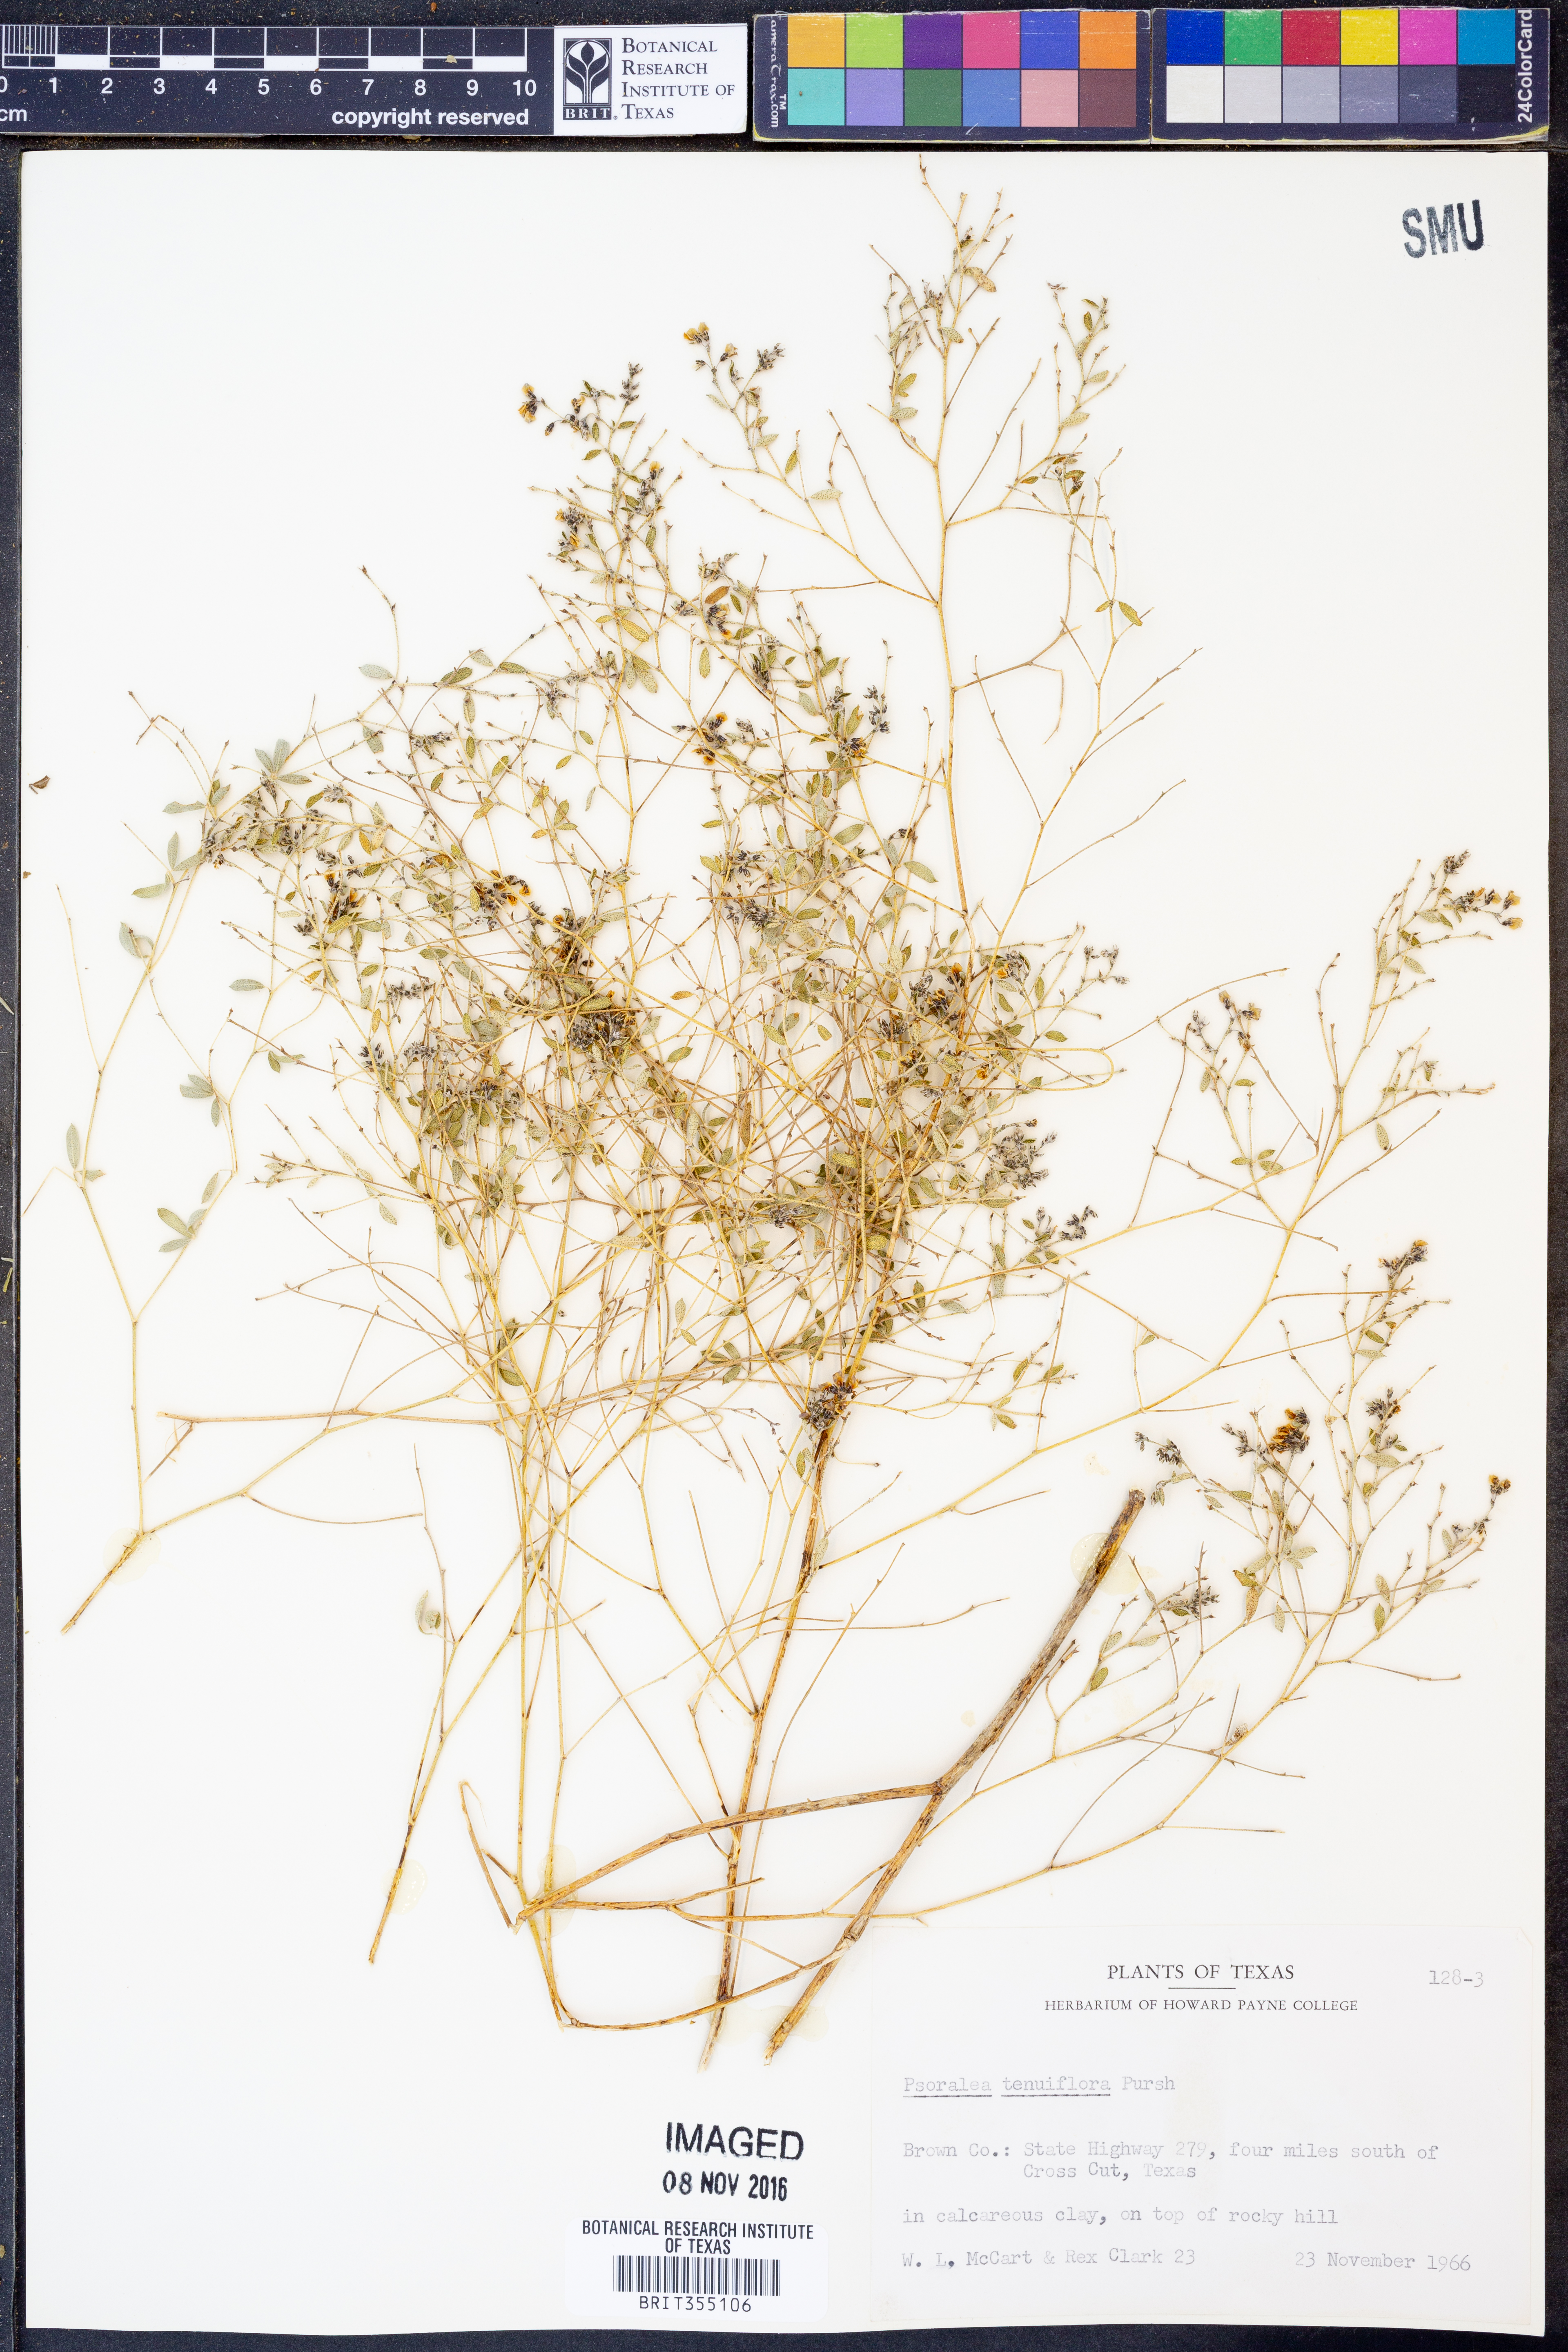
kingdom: Plantae
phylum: Tracheophyta
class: Magnoliopsida
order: Fabales
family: Fabaceae
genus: Pediomelum
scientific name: Pediomelum tenuiflorum
